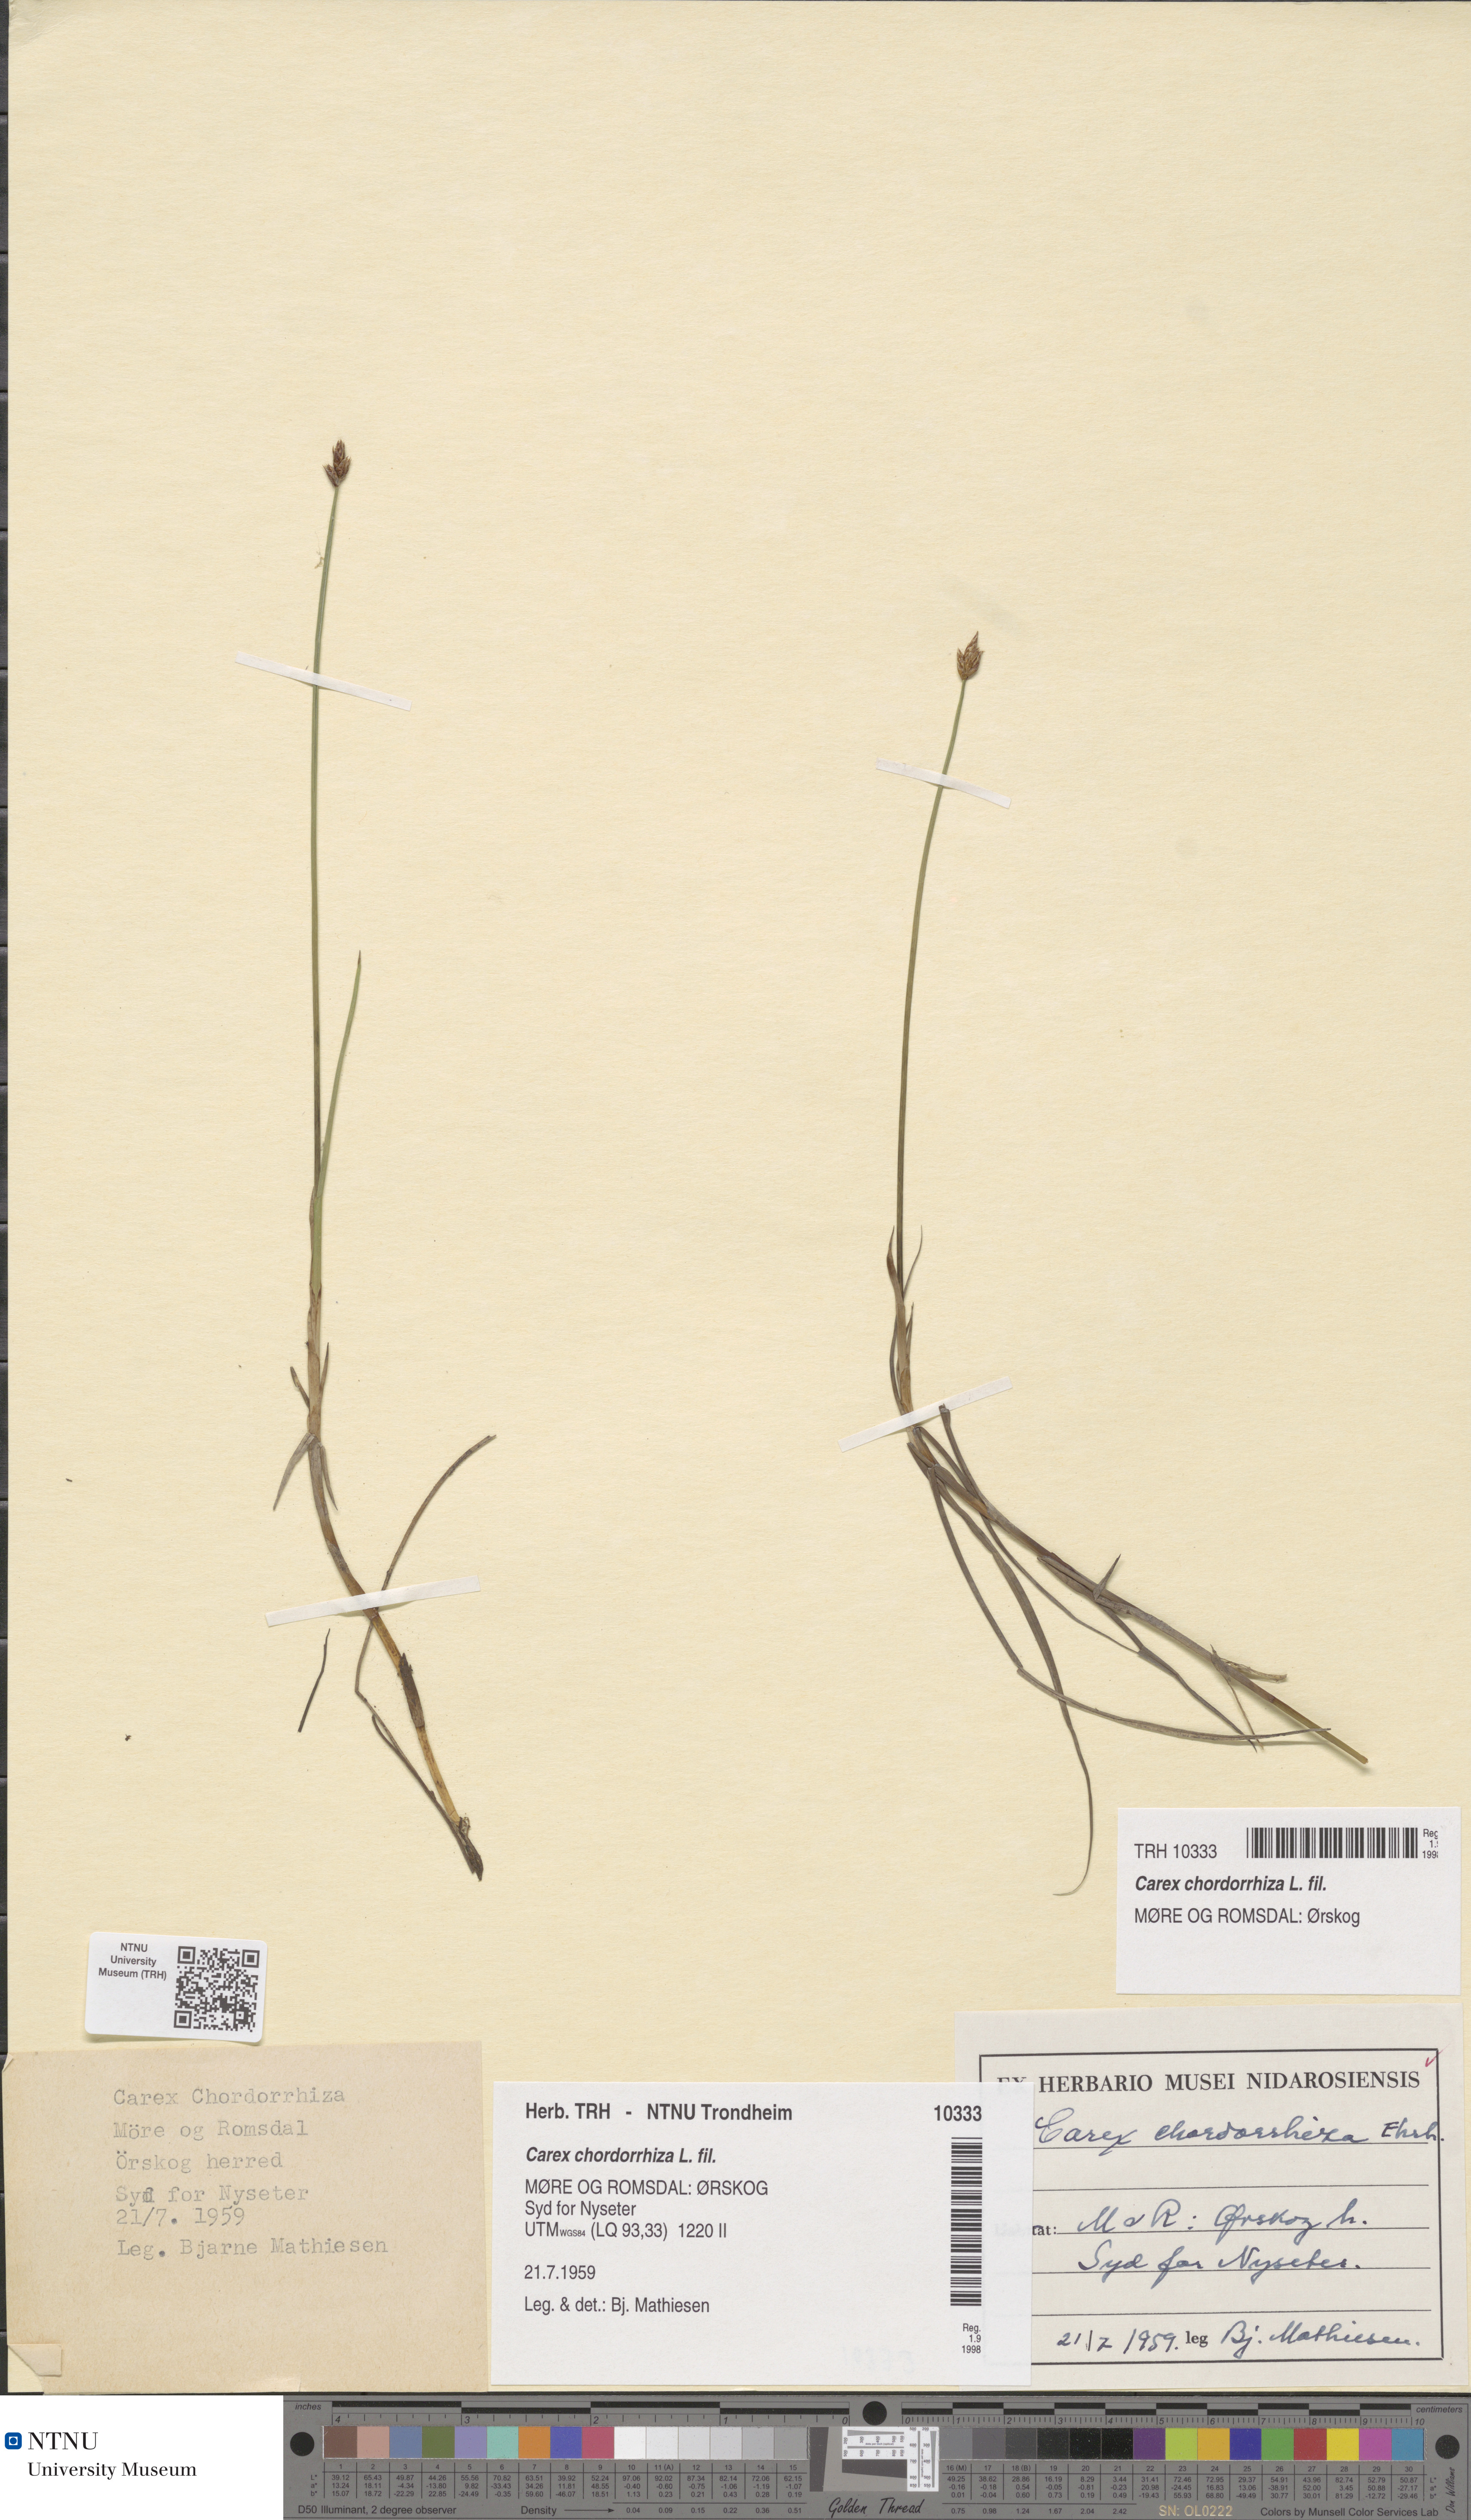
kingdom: Plantae
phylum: Tracheophyta
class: Liliopsida
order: Poales
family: Cyperaceae
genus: Carex
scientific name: Carex chordorrhiza
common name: String sedge
